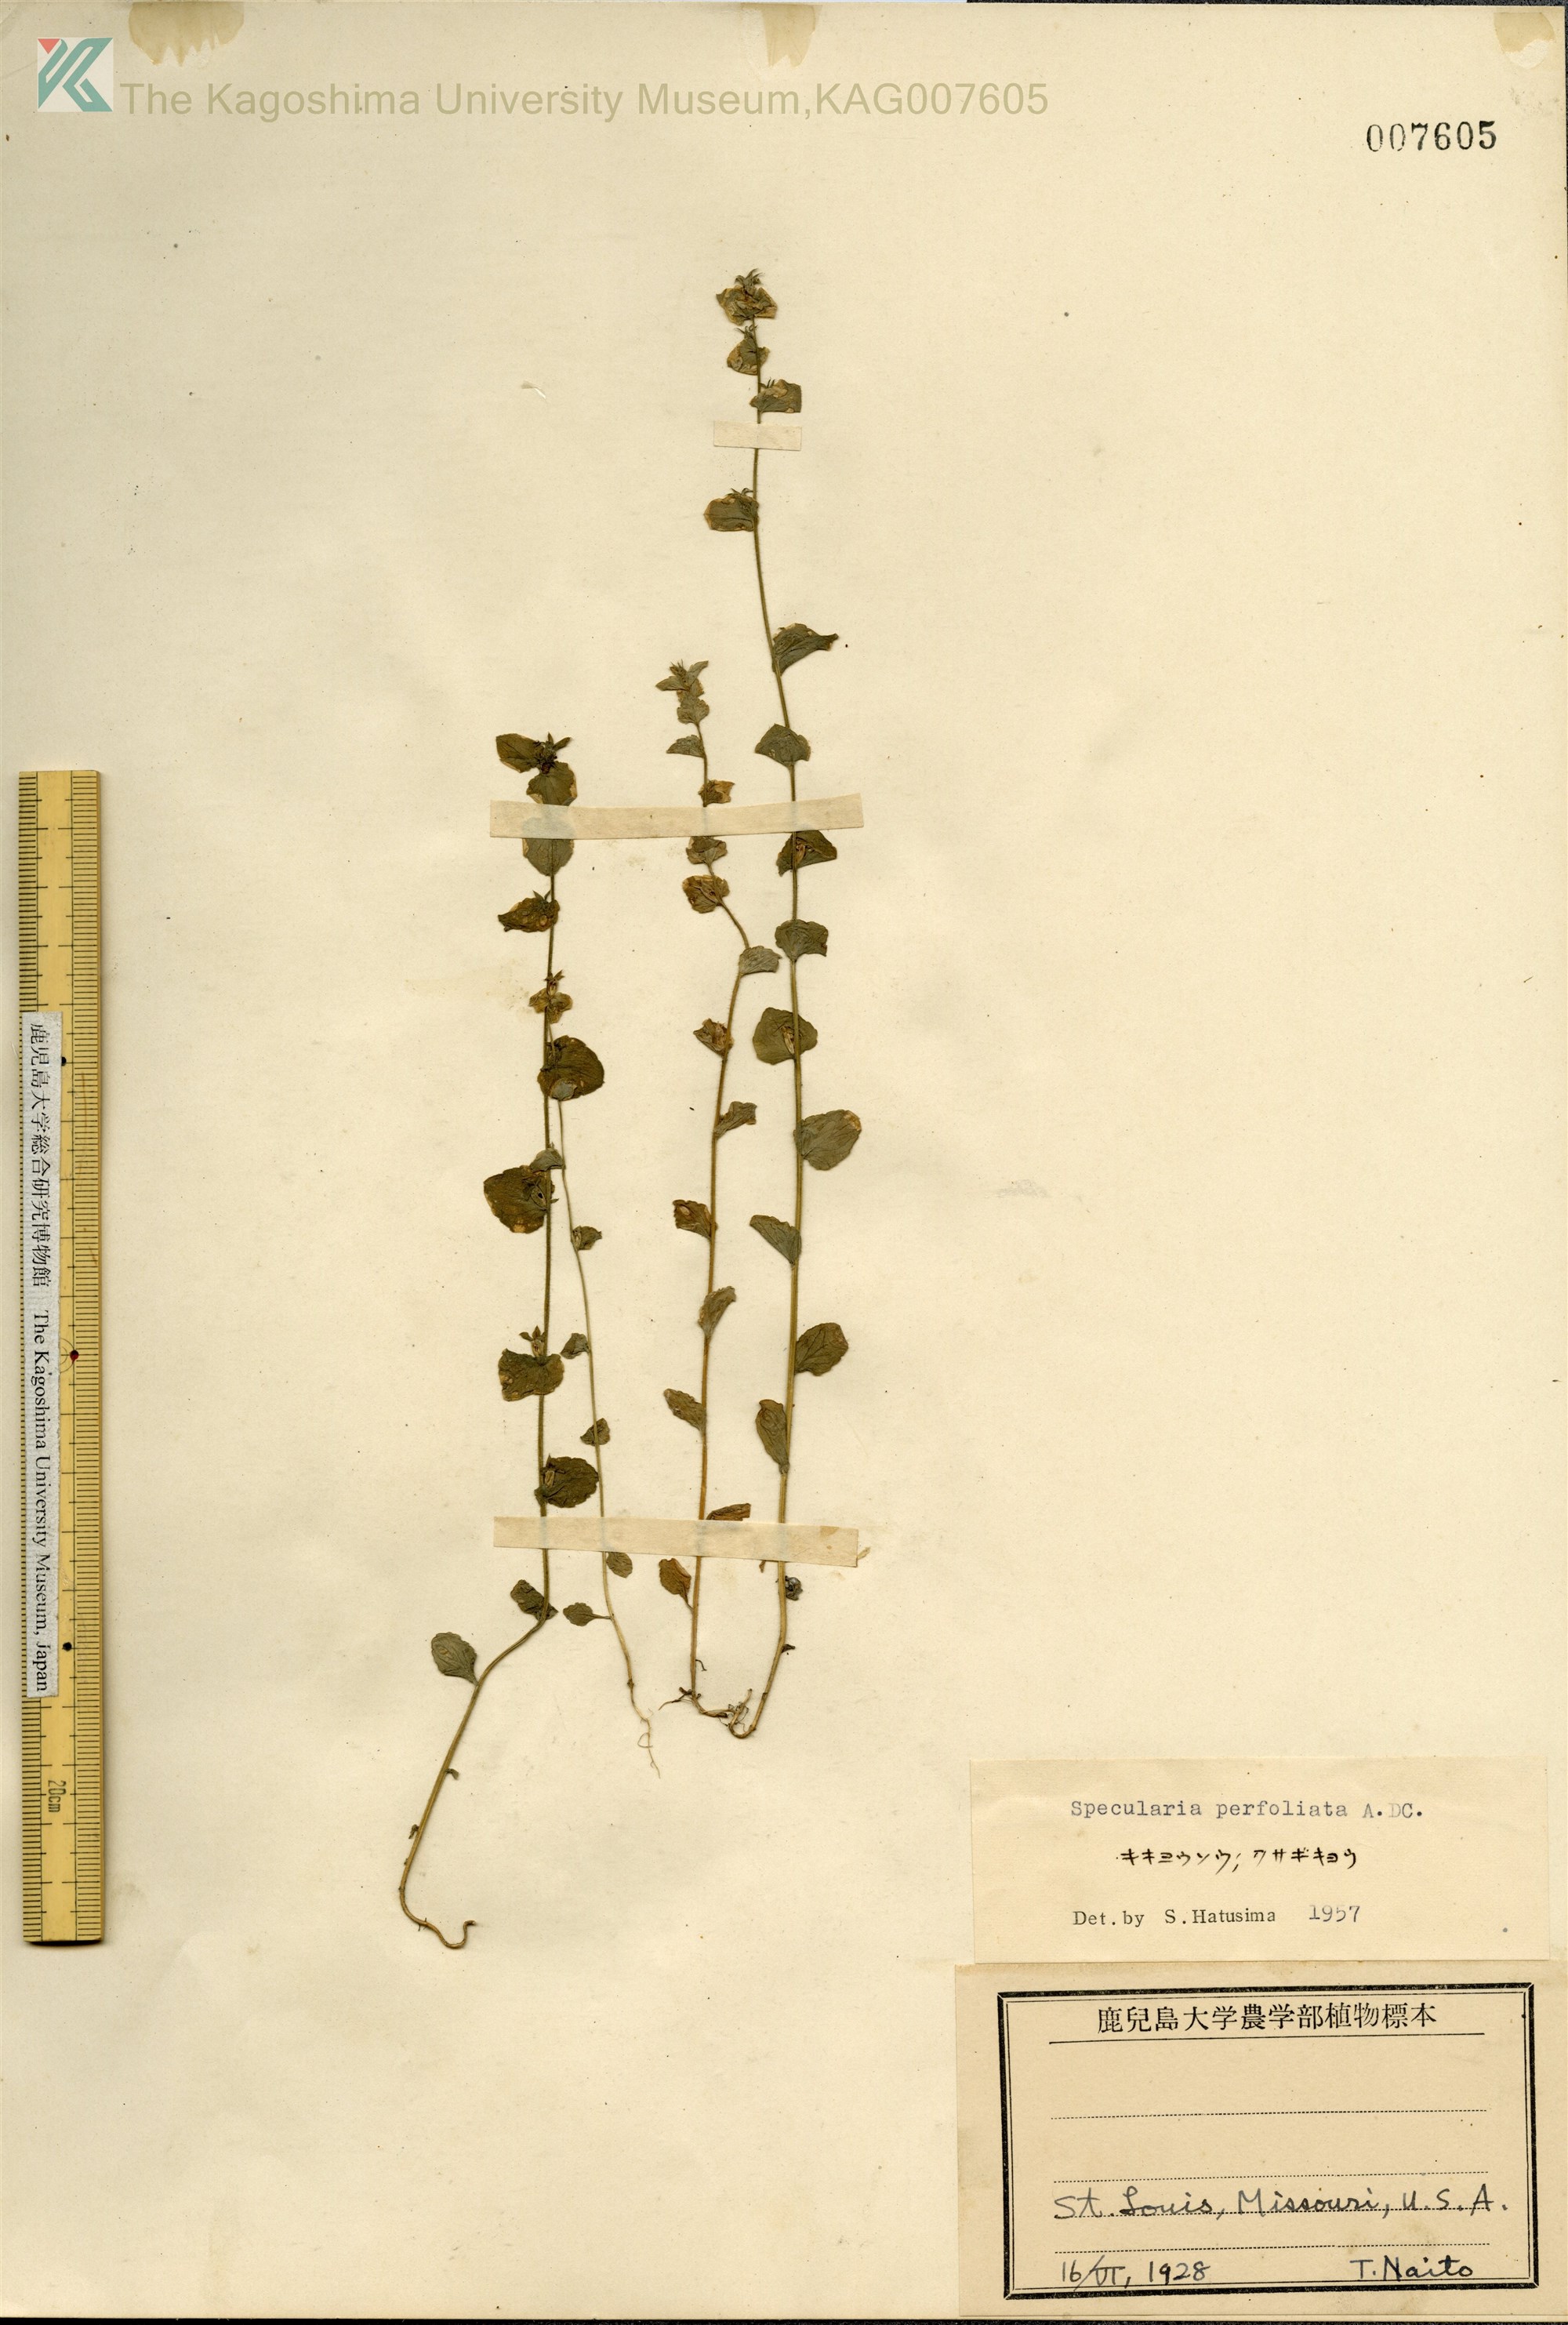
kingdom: Plantae
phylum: Tracheophyta
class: Magnoliopsida
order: Asterales
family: Campanulaceae
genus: Triodanis
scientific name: Triodanis perfoliata
